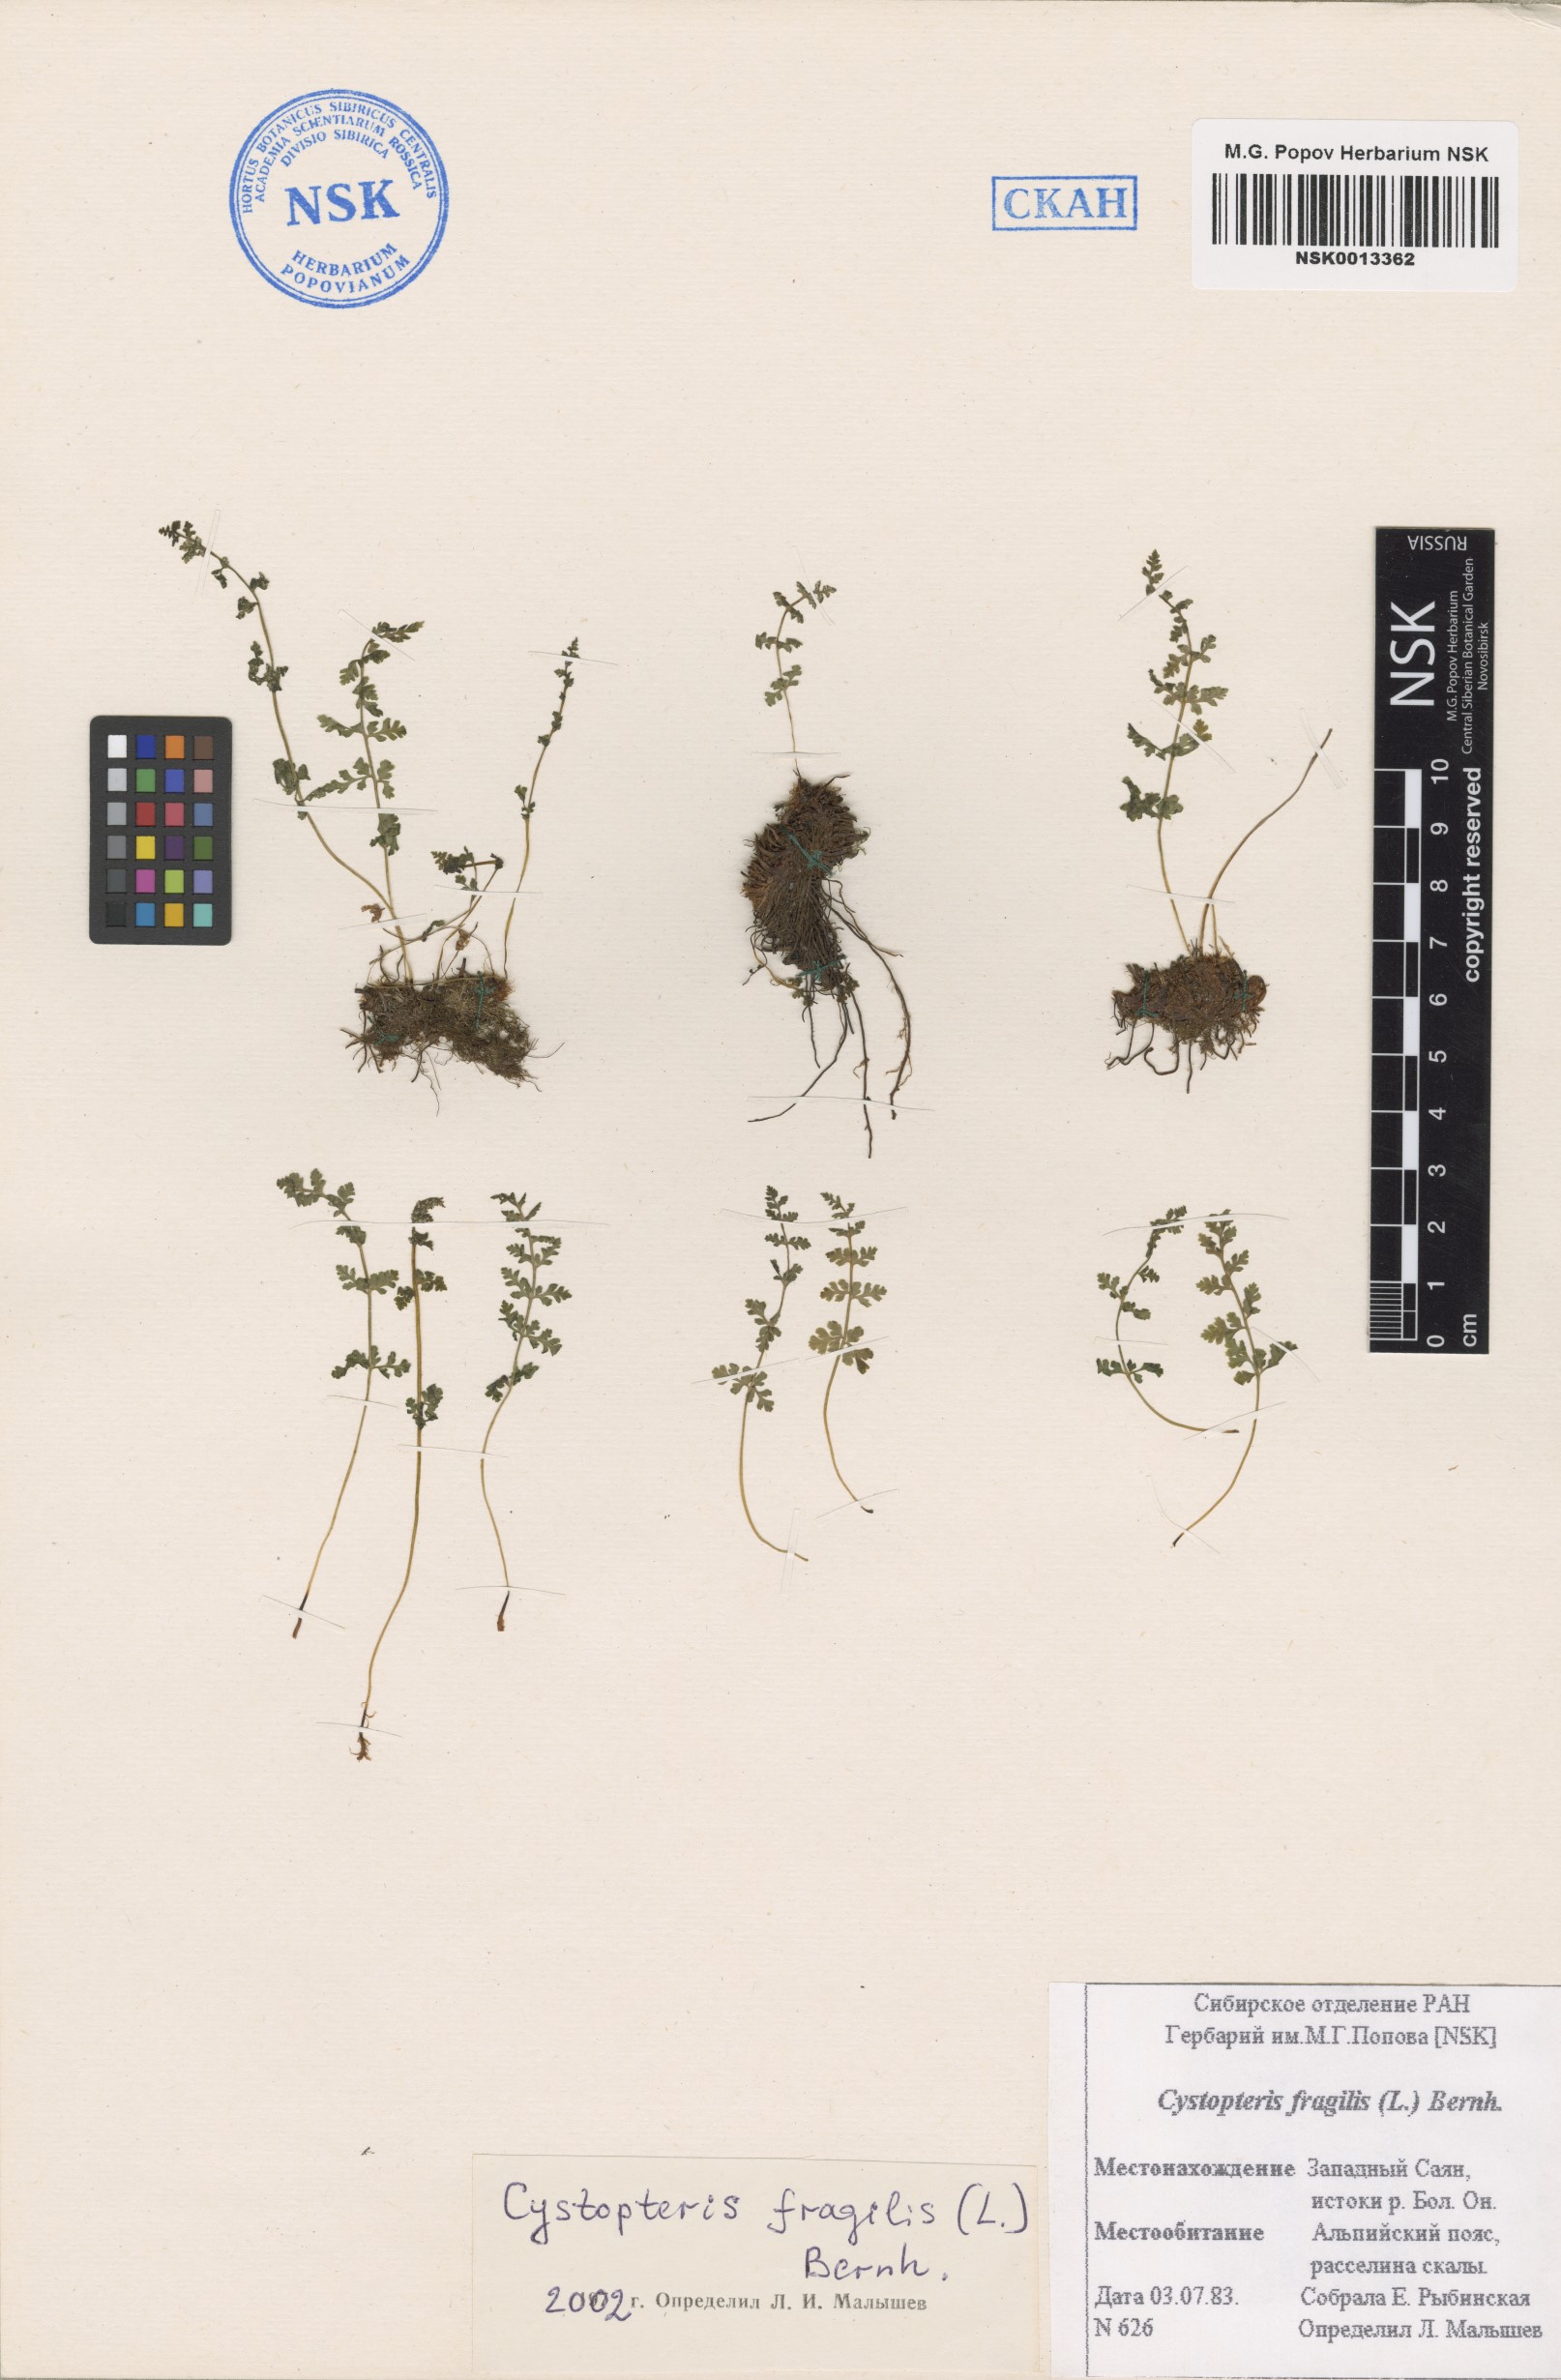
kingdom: Plantae
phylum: Tracheophyta
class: Polypodiopsida
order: Polypodiales
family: Cystopteridaceae
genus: Cystopteris
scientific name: Cystopteris fragilis
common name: Brittle bladder fern
